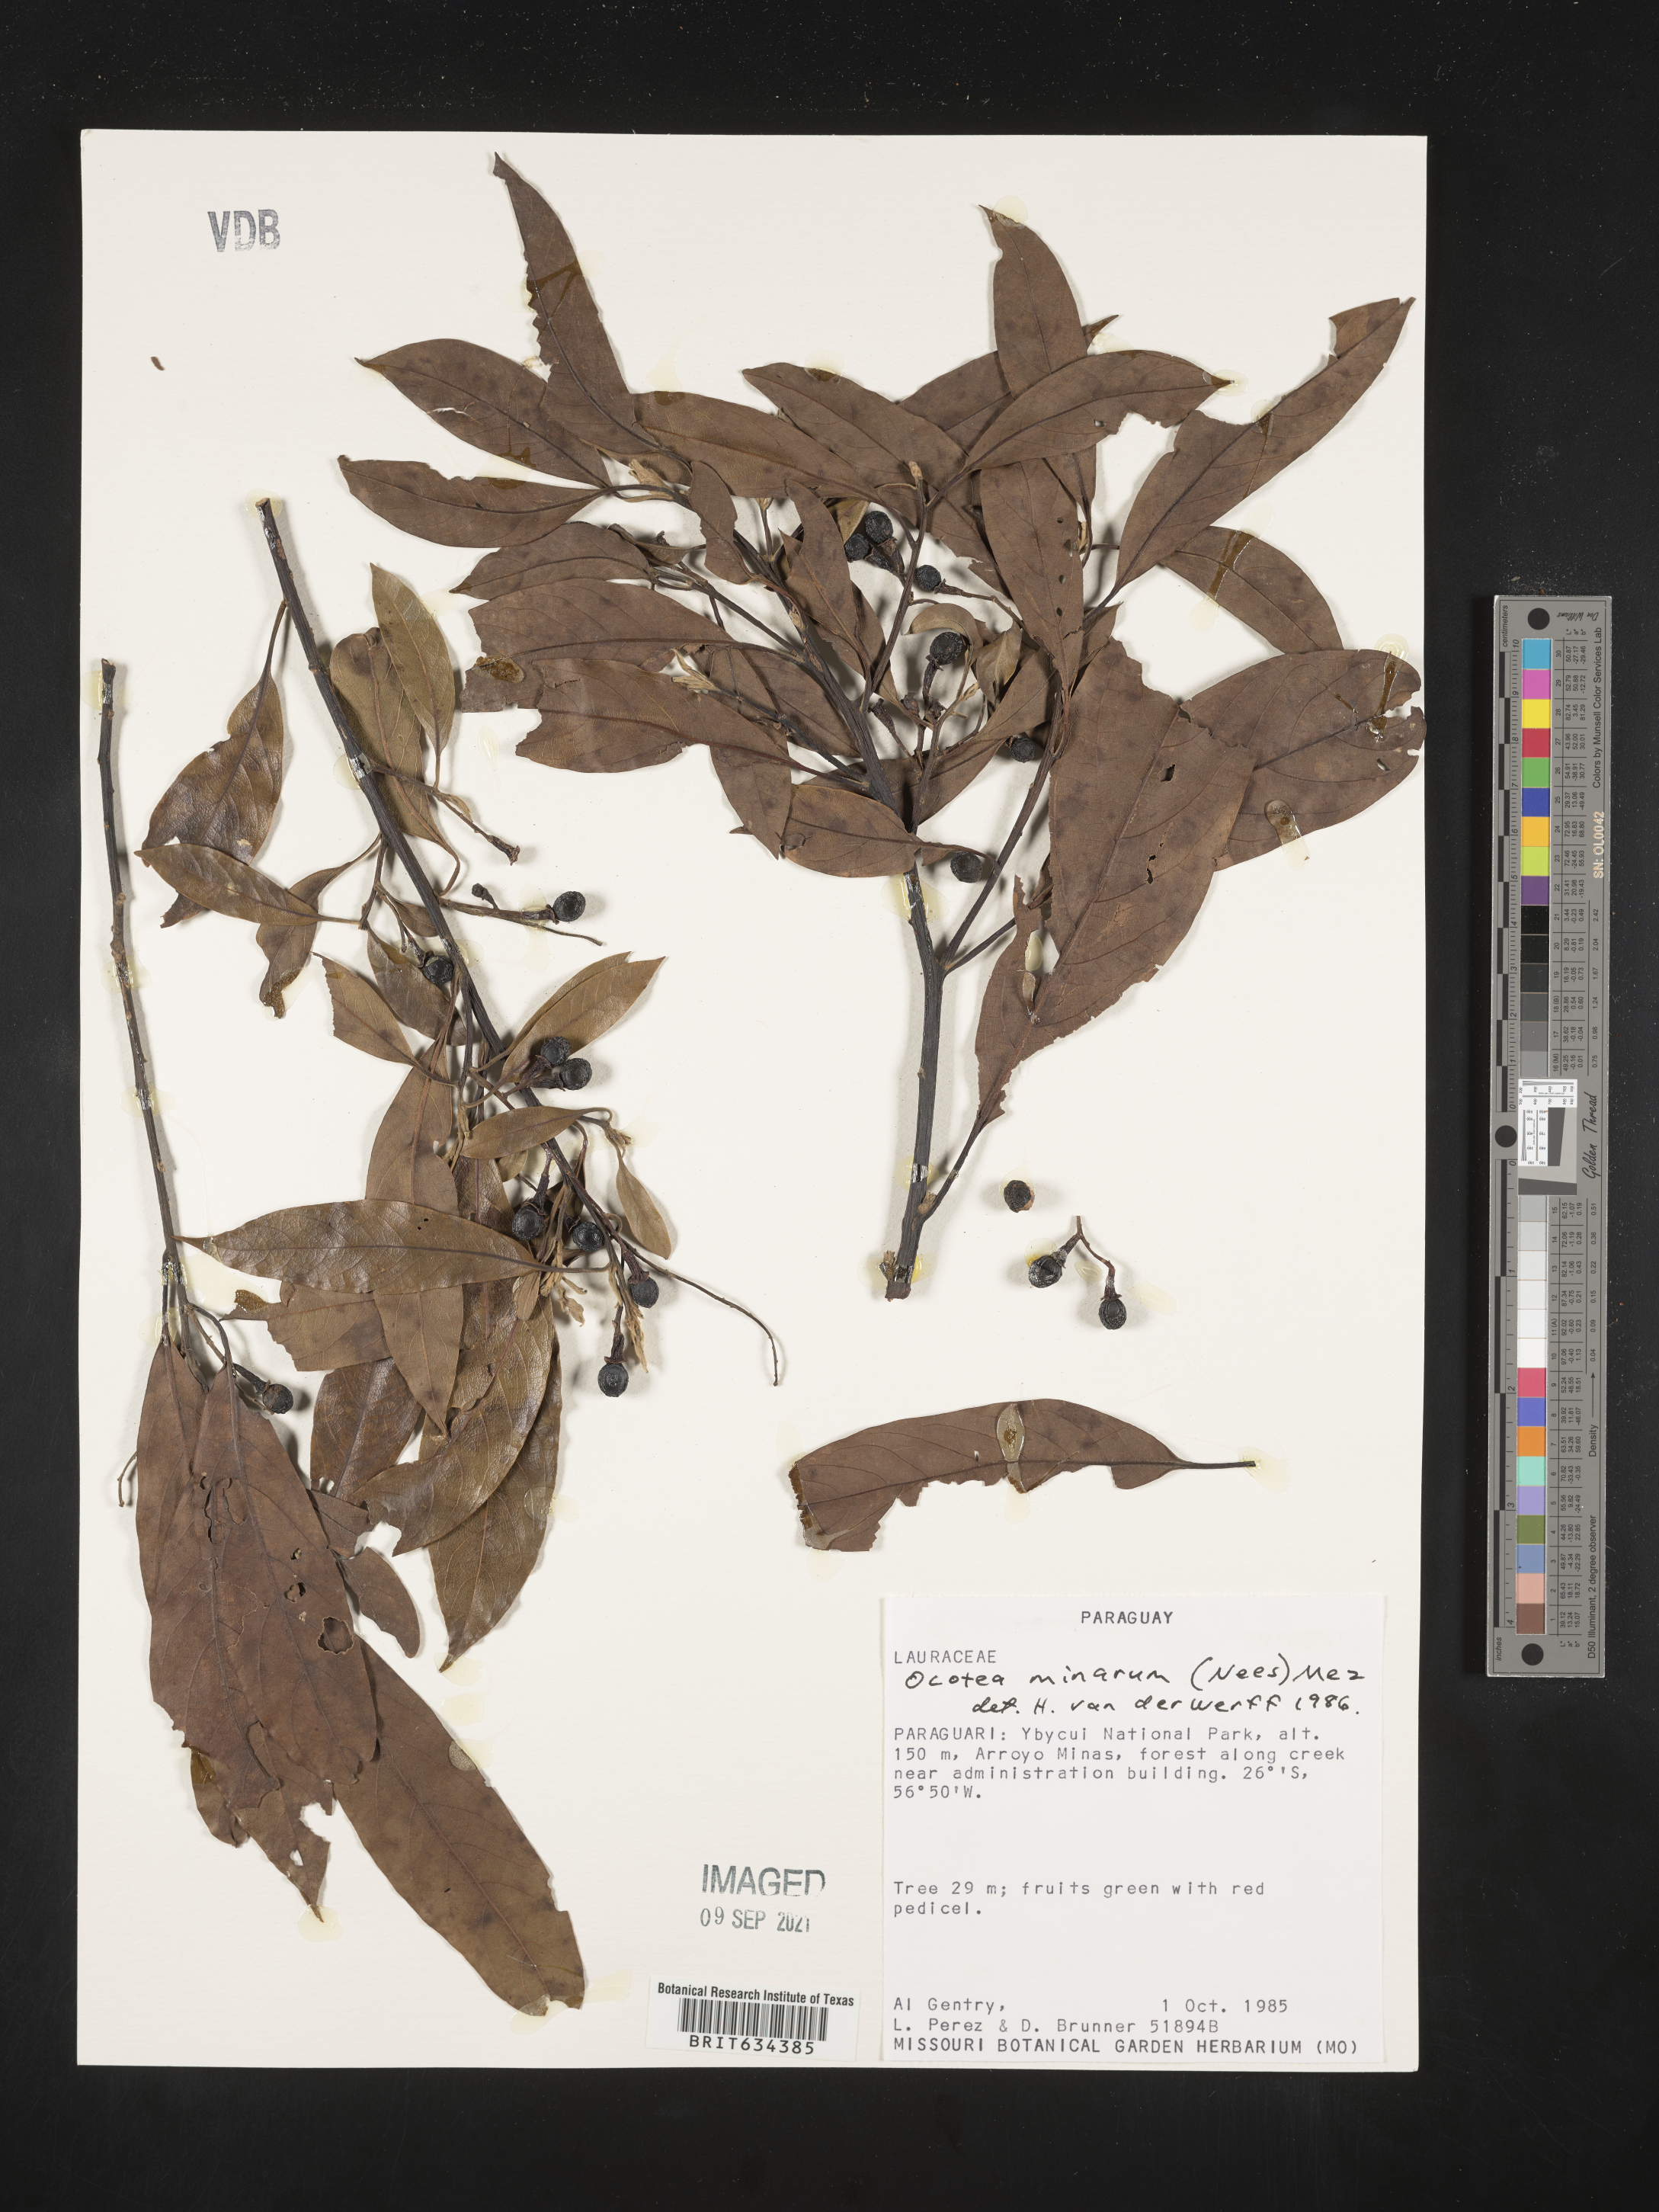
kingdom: Plantae
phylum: Tracheophyta
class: Magnoliopsida
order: Laurales
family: Lauraceae
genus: Ocotea
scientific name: Ocotea
